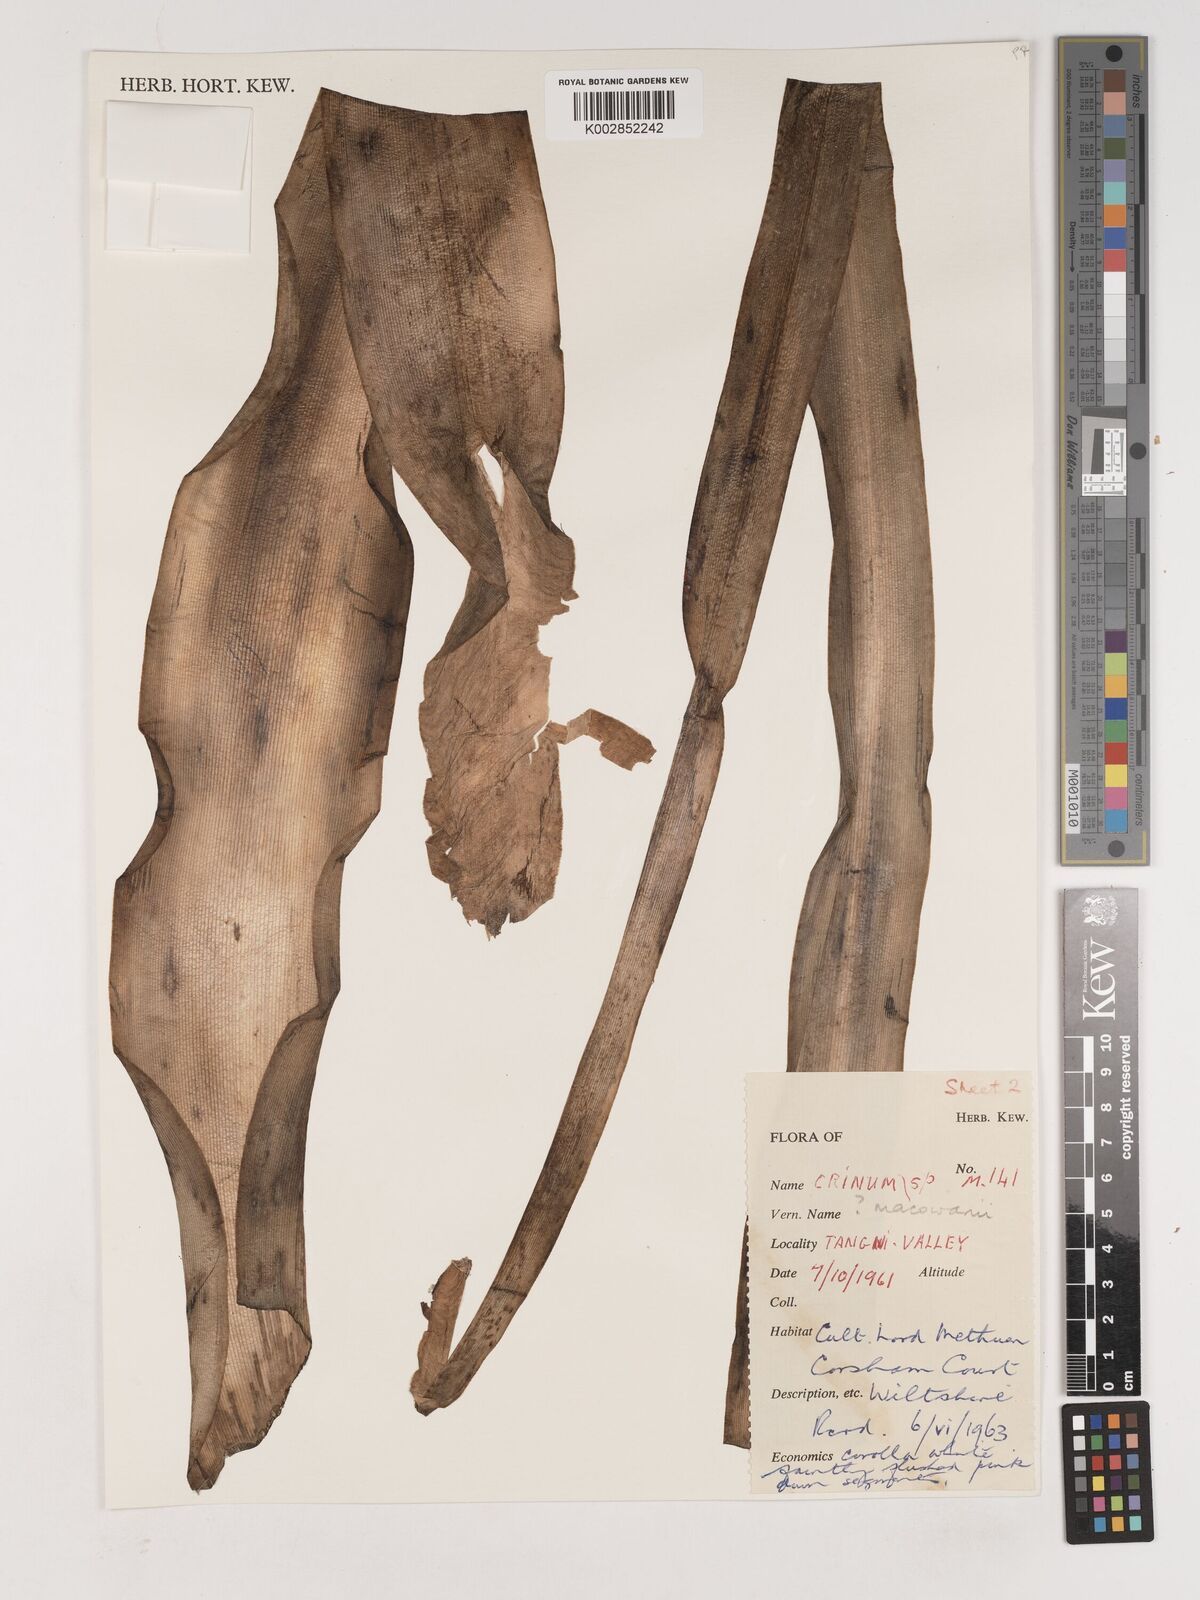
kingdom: Plantae
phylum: Tracheophyta
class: Liliopsida
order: Asparagales
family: Amaryllidaceae
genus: Crinum
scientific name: Crinum macowanii
